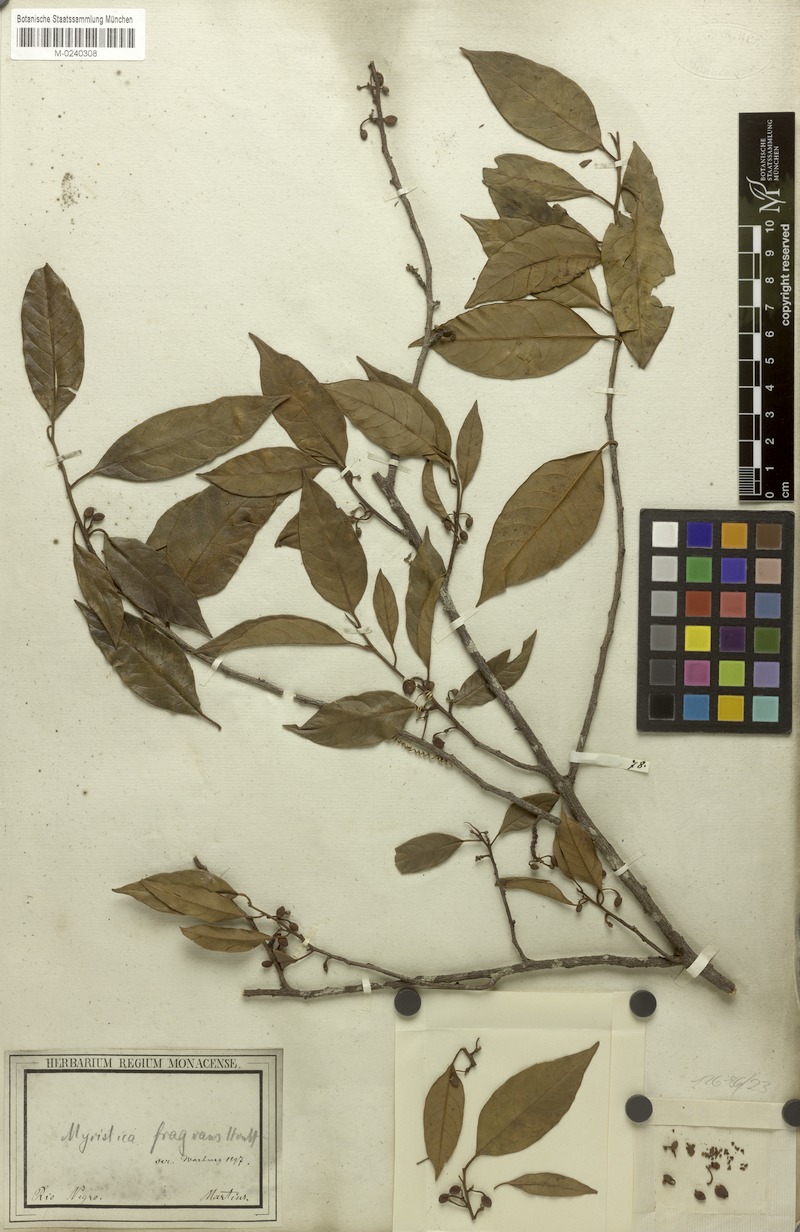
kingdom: Plantae
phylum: Tracheophyta
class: Magnoliopsida
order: Magnoliales
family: Myristicaceae
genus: Myristica
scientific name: Myristica fragrans
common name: Nutmeg
